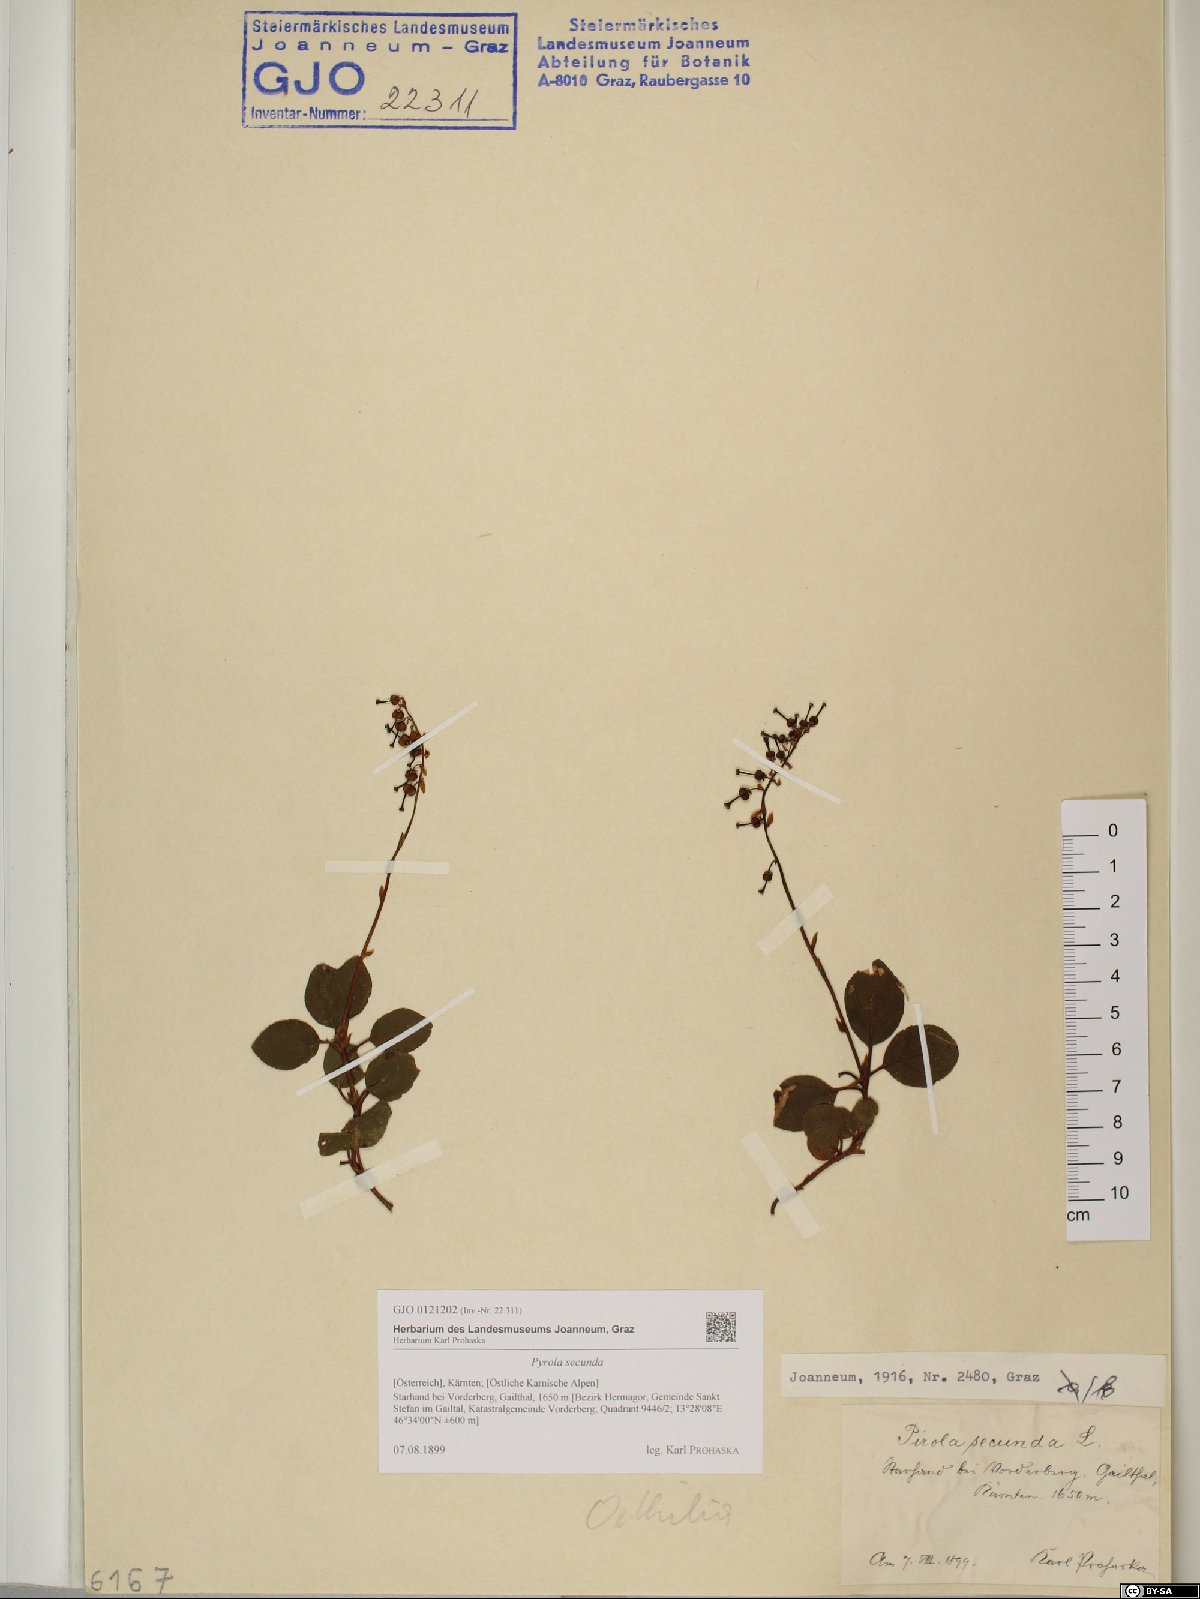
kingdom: Plantae
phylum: Tracheophyta
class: Magnoliopsida
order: Ericales
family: Ericaceae
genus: Orthilia
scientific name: Orthilia secunda
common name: One-sided orthilia
